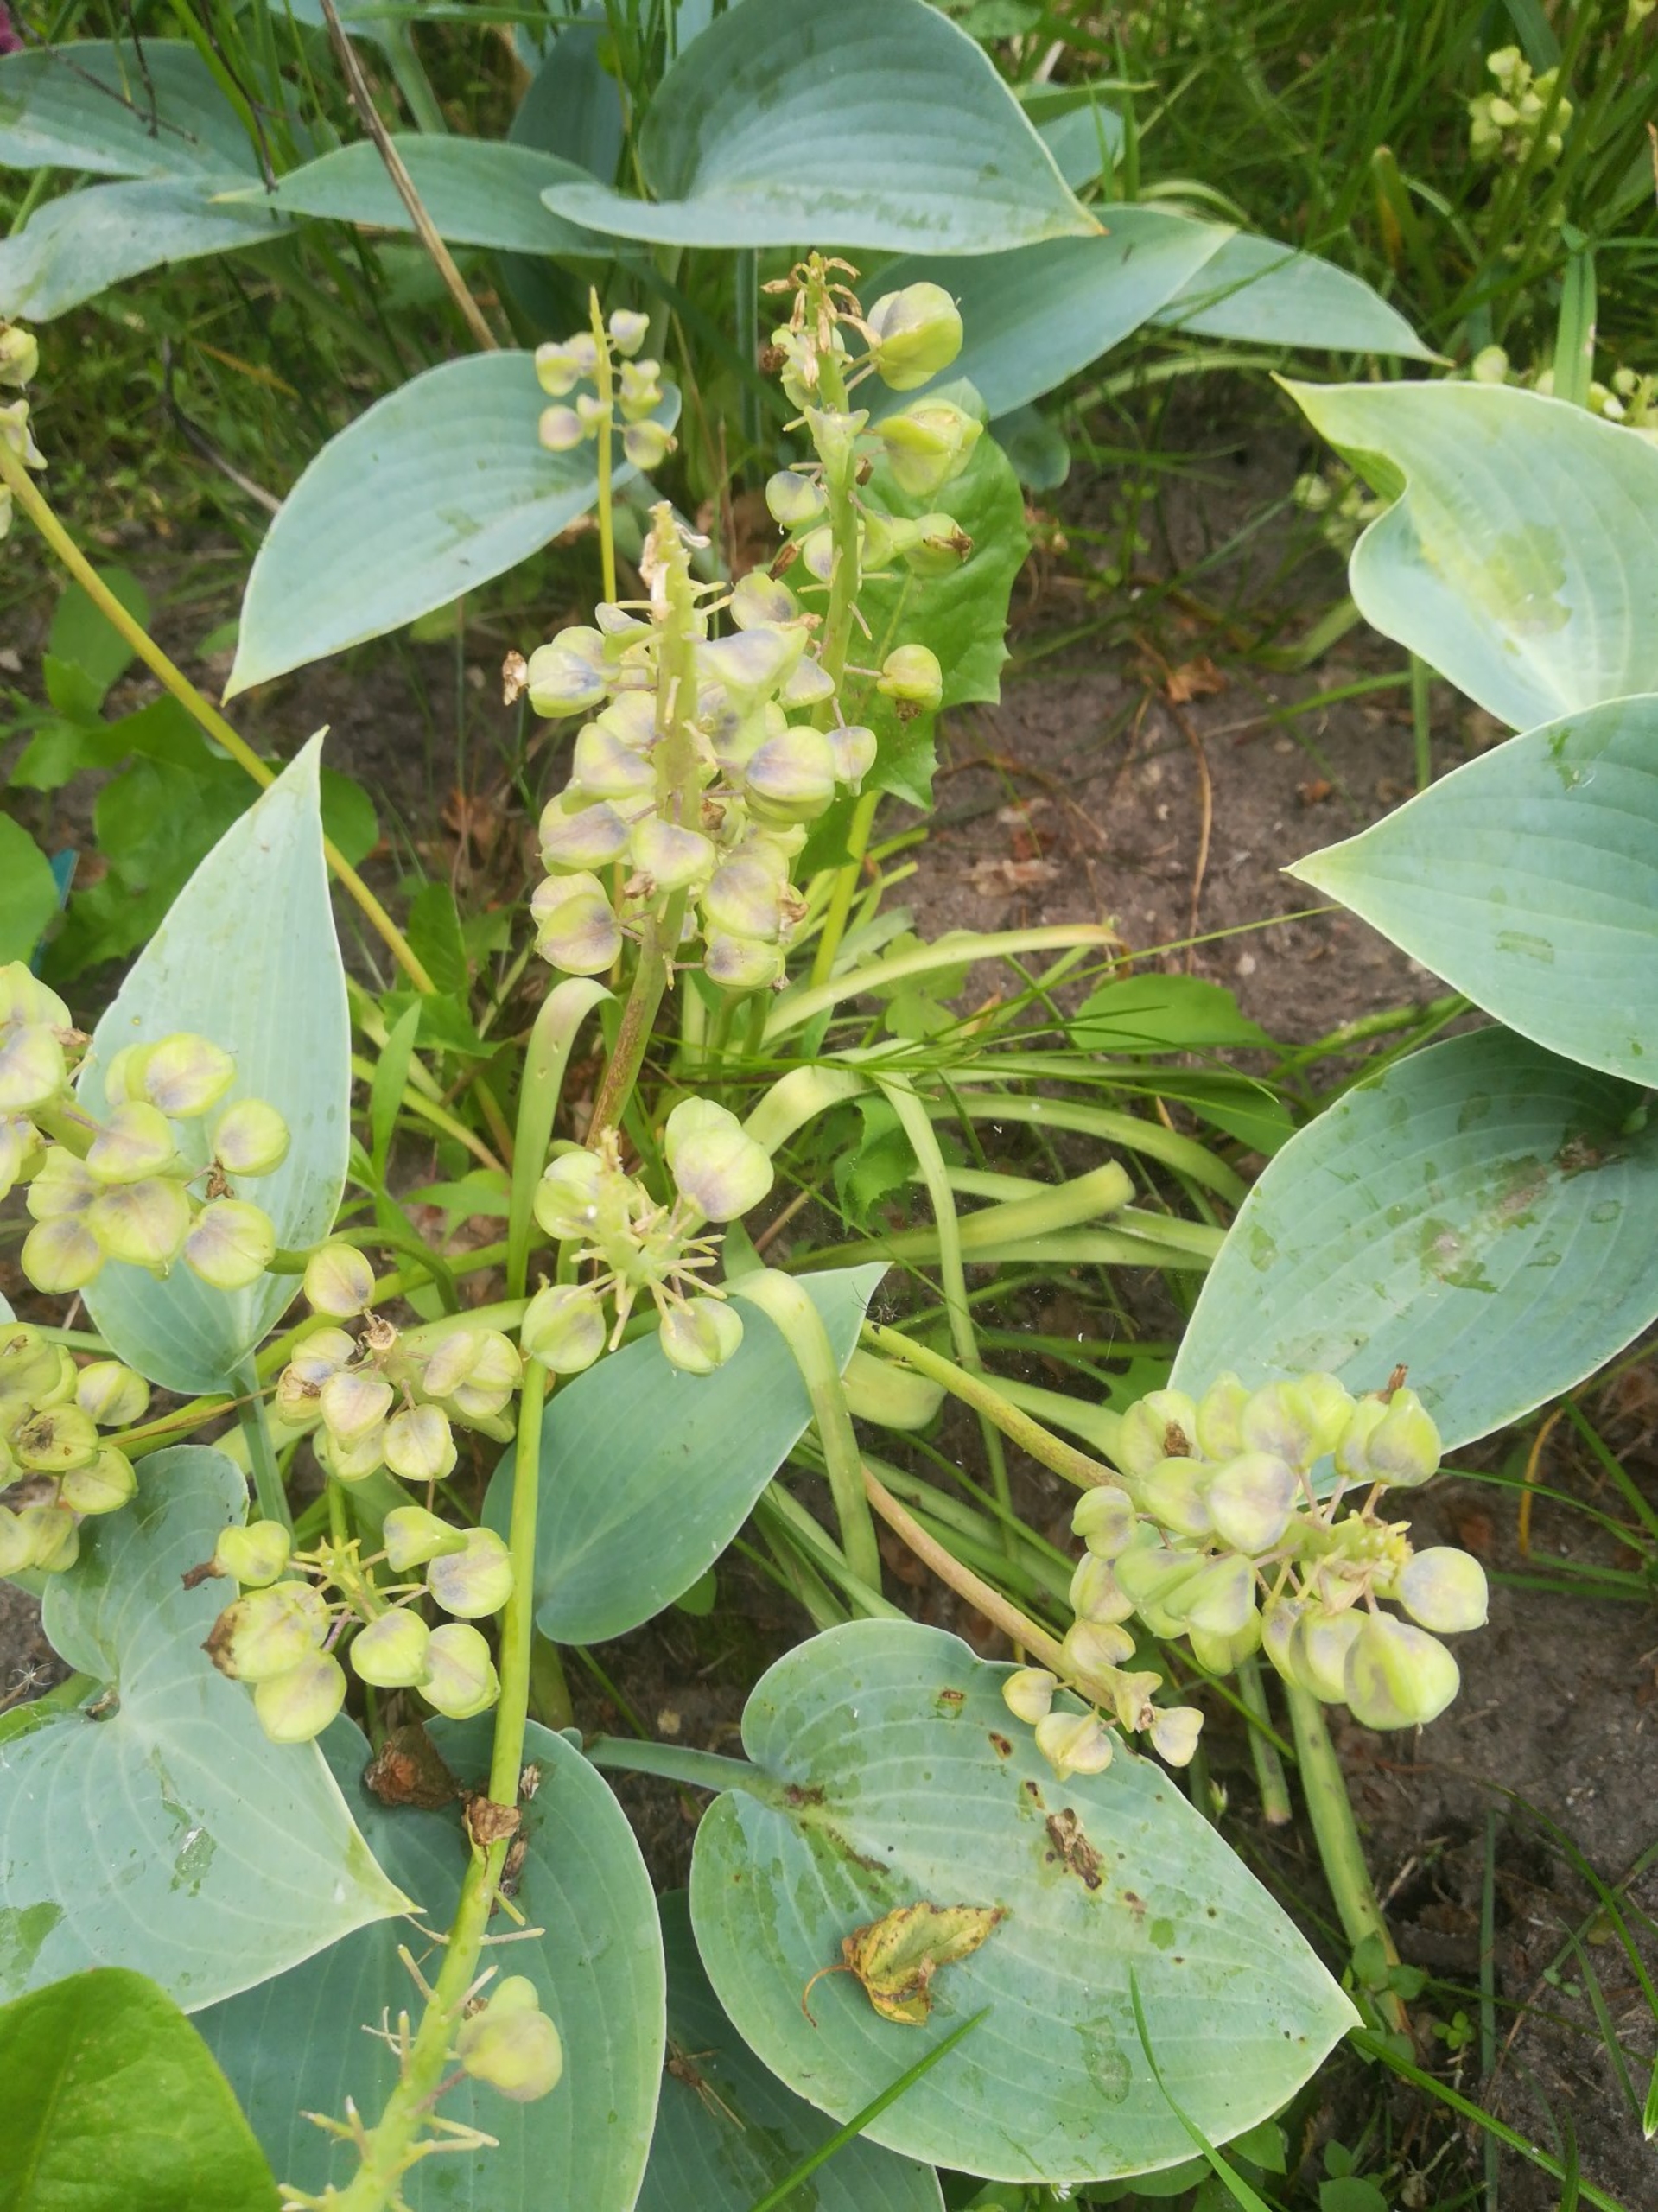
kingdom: Plantae
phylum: Tracheophyta
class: Liliopsida
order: Asparagales
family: Asparagaceae
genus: Muscari
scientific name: Muscari armeniacum
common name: Armensk perlehyacint
